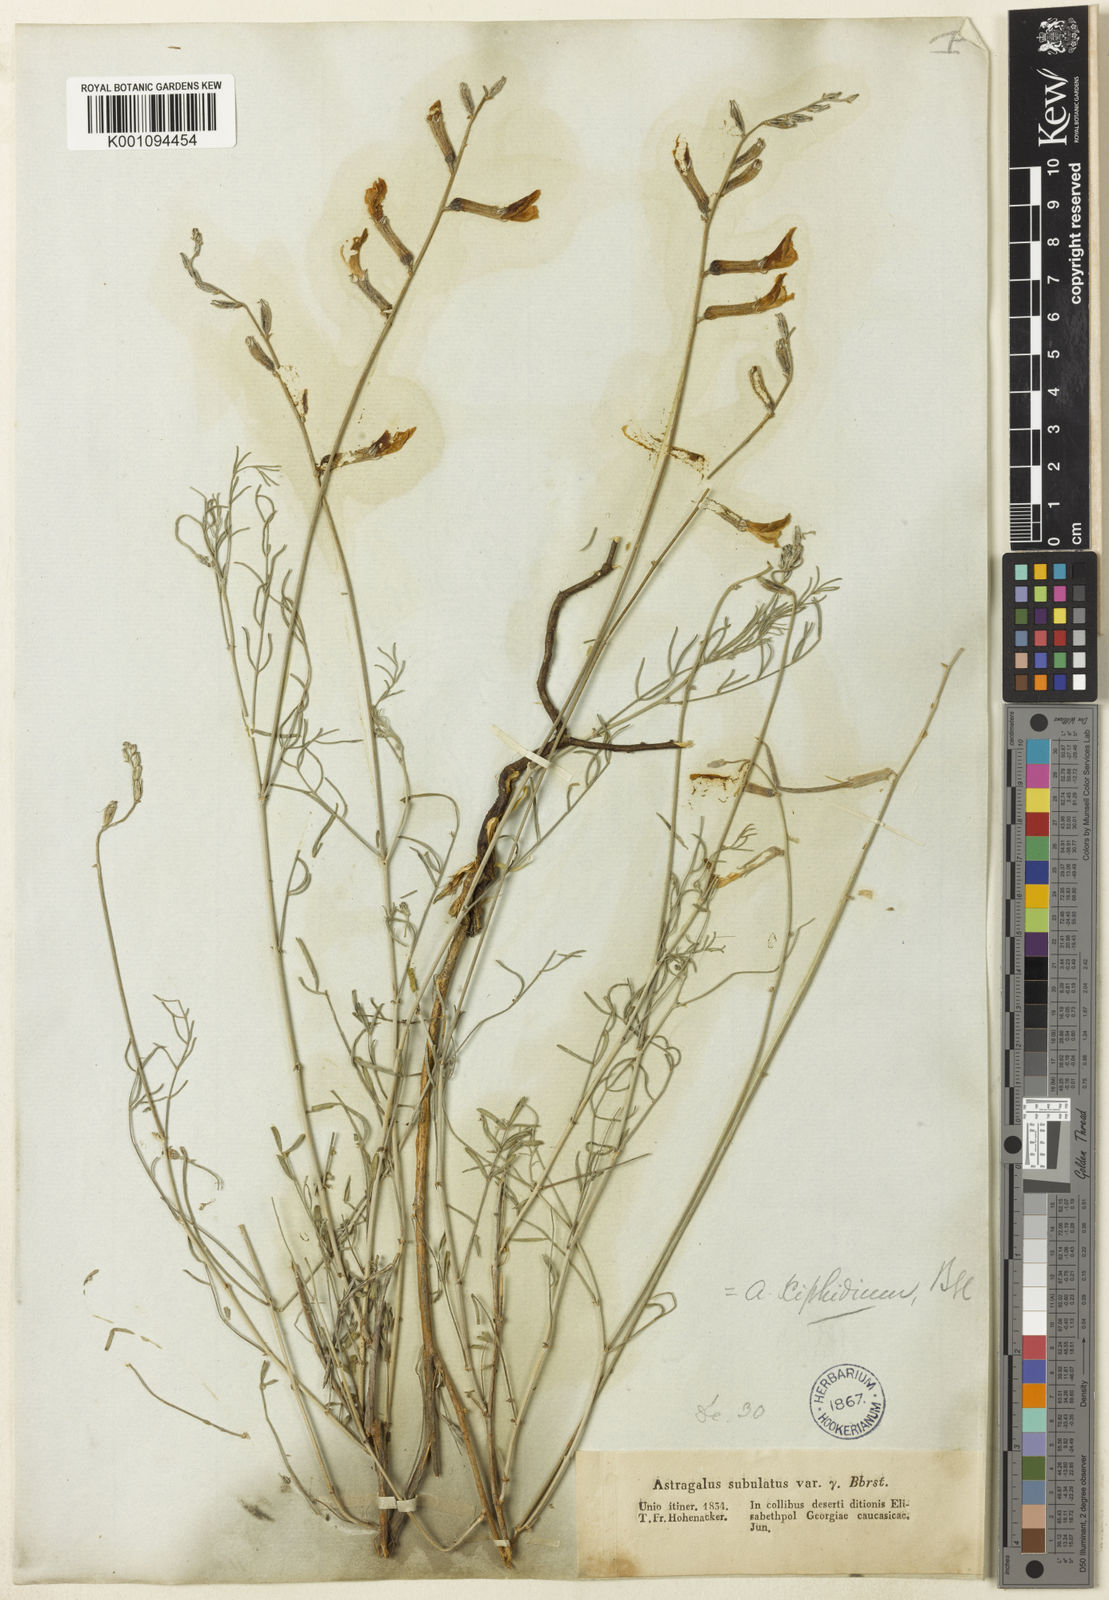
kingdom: Plantae
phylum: Tracheophyta
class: Magnoliopsida
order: Fabales
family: Fabaceae
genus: Astragalus
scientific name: Astragalus
